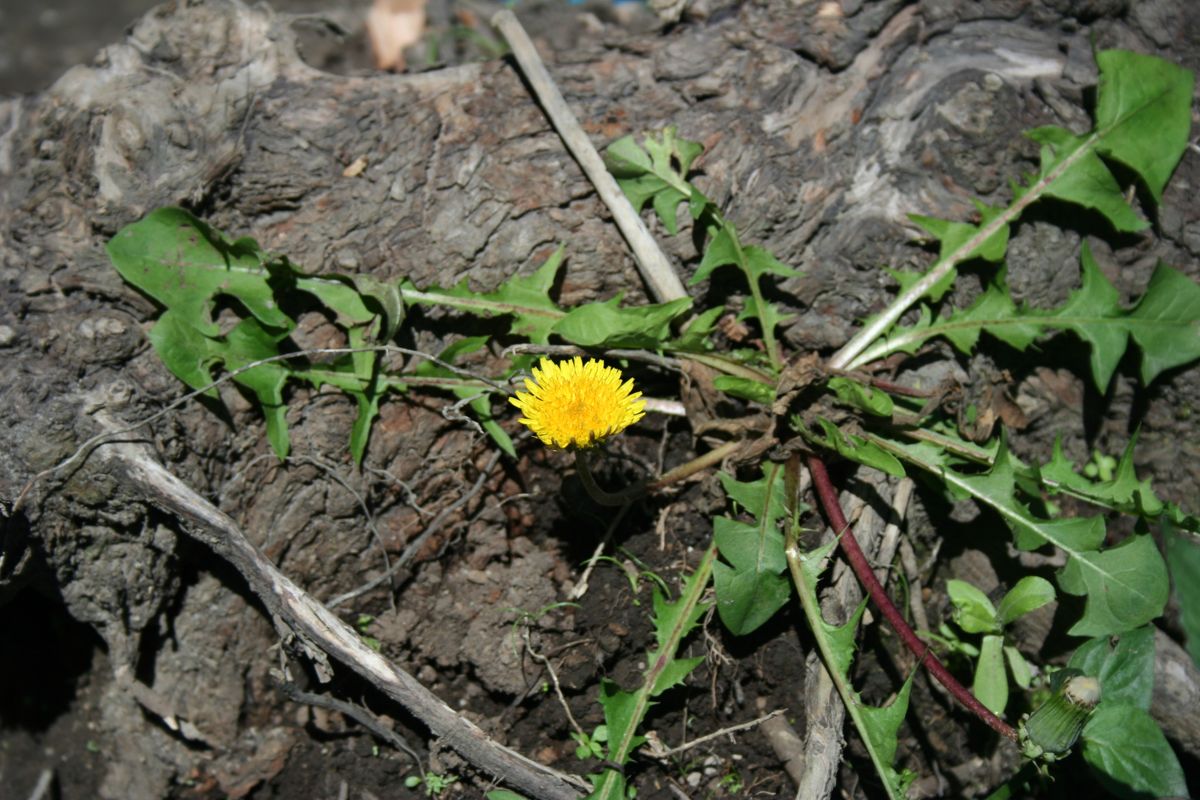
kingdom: Plantae
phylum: Tracheophyta
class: Magnoliopsida
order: Asterales
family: Asteraceae
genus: Taraxacum
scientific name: Taraxacum officinale
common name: Common dandelion
